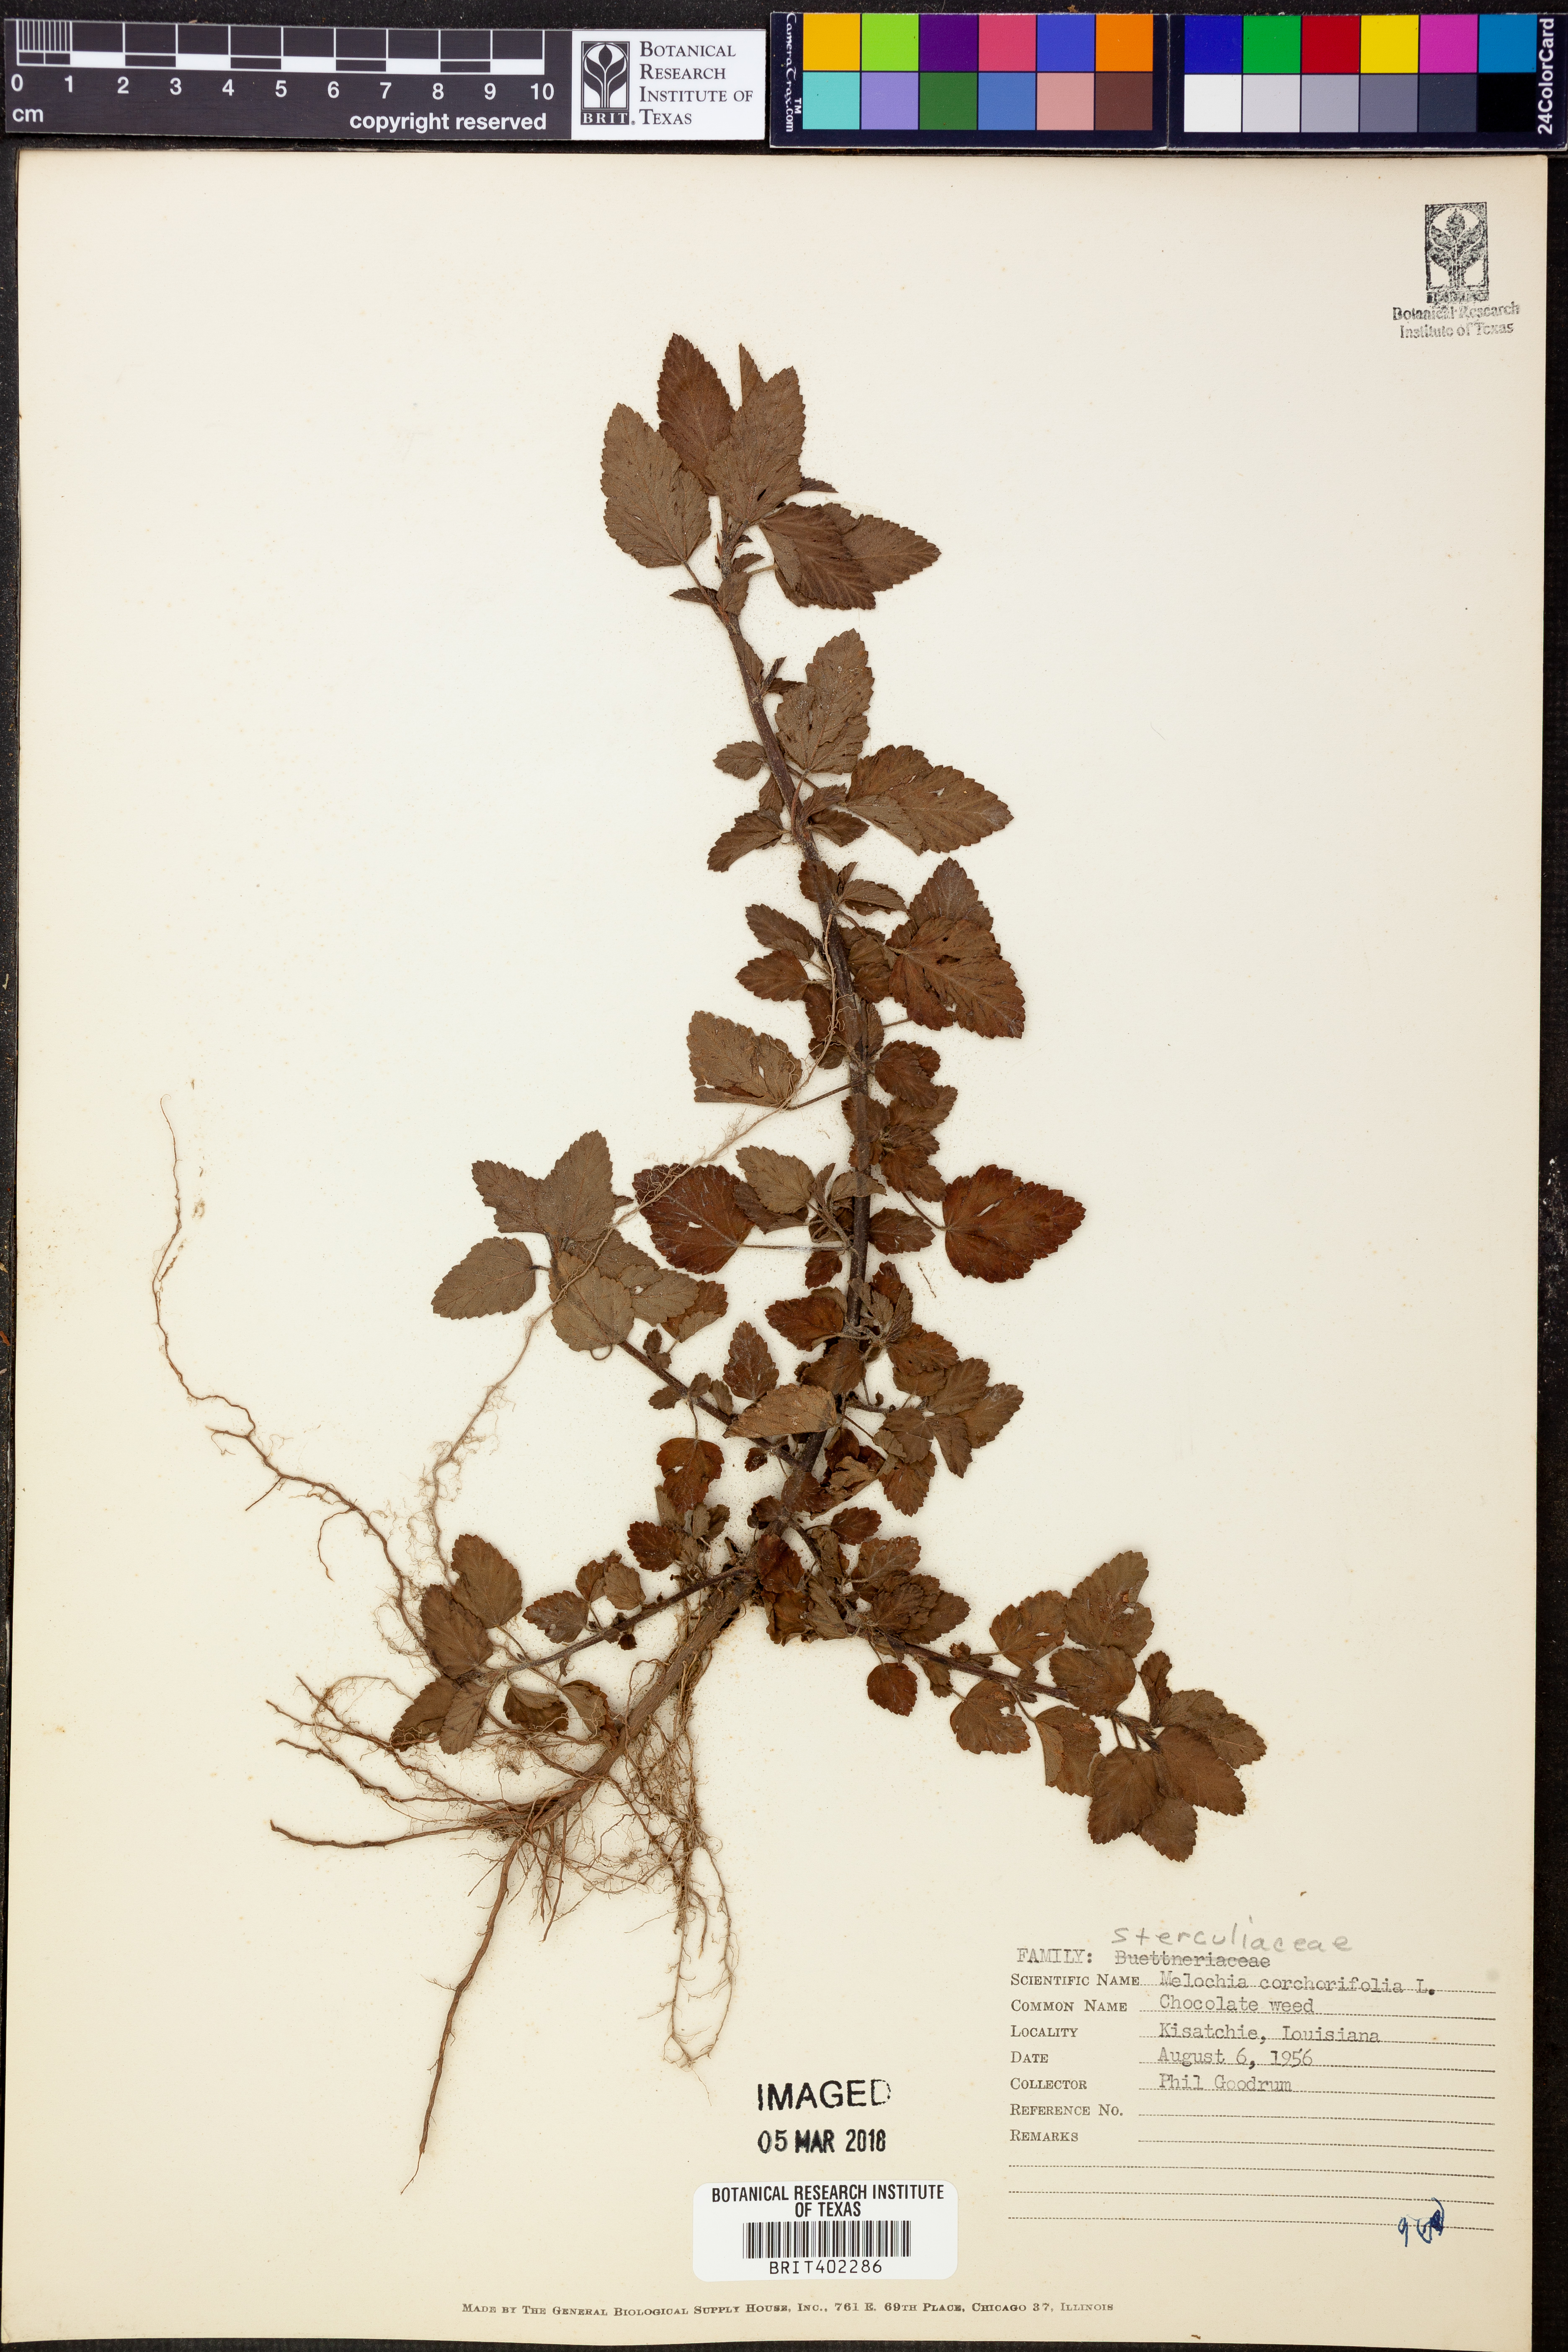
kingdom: Plantae
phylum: Tracheophyta
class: Magnoliopsida
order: Malvales
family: Malvaceae
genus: Melochia
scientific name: Melochia corchorifolia
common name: Chocolateweed
